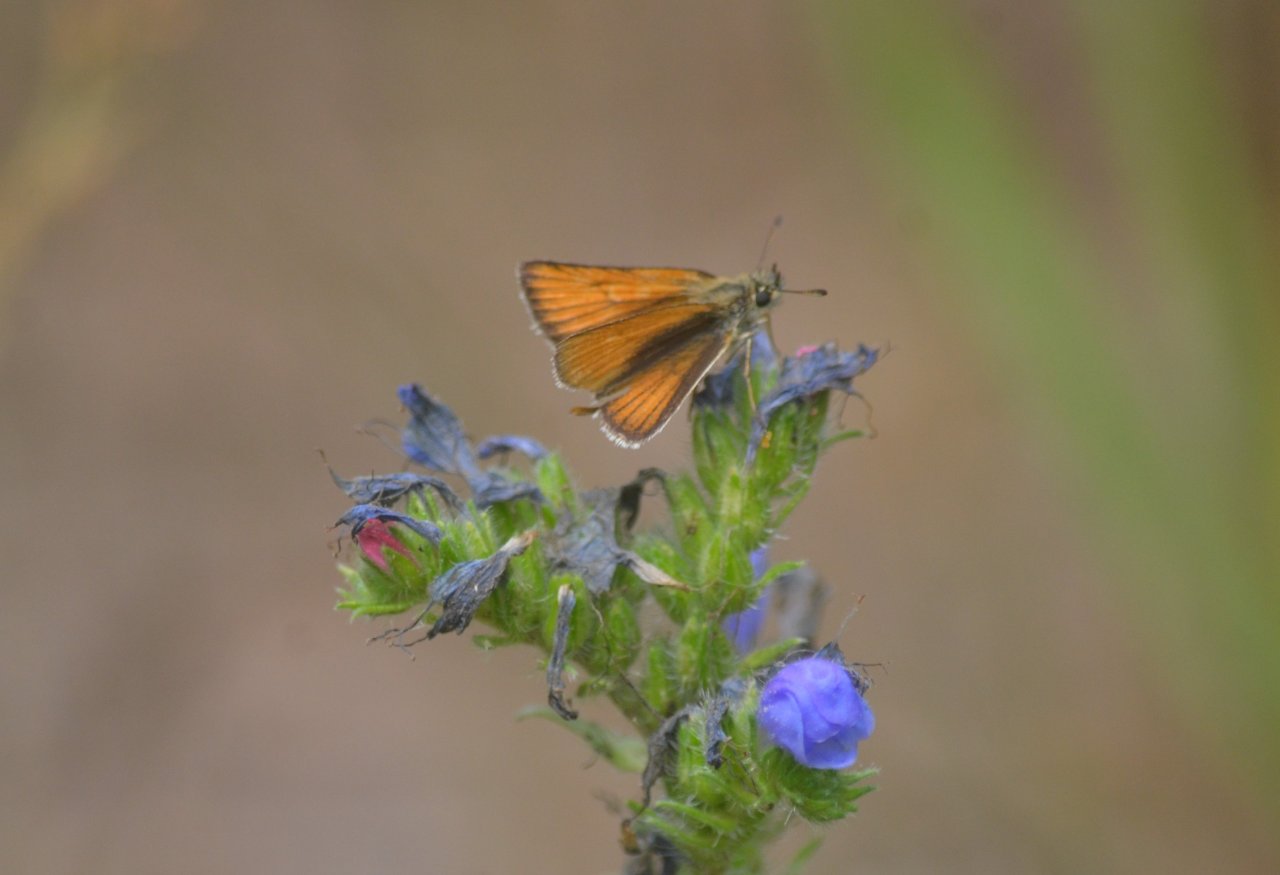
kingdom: Animalia
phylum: Arthropoda
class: Insecta
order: Lepidoptera
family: Hesperiidae
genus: Thymelicus
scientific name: Thymelicus lineola
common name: European Skipper
